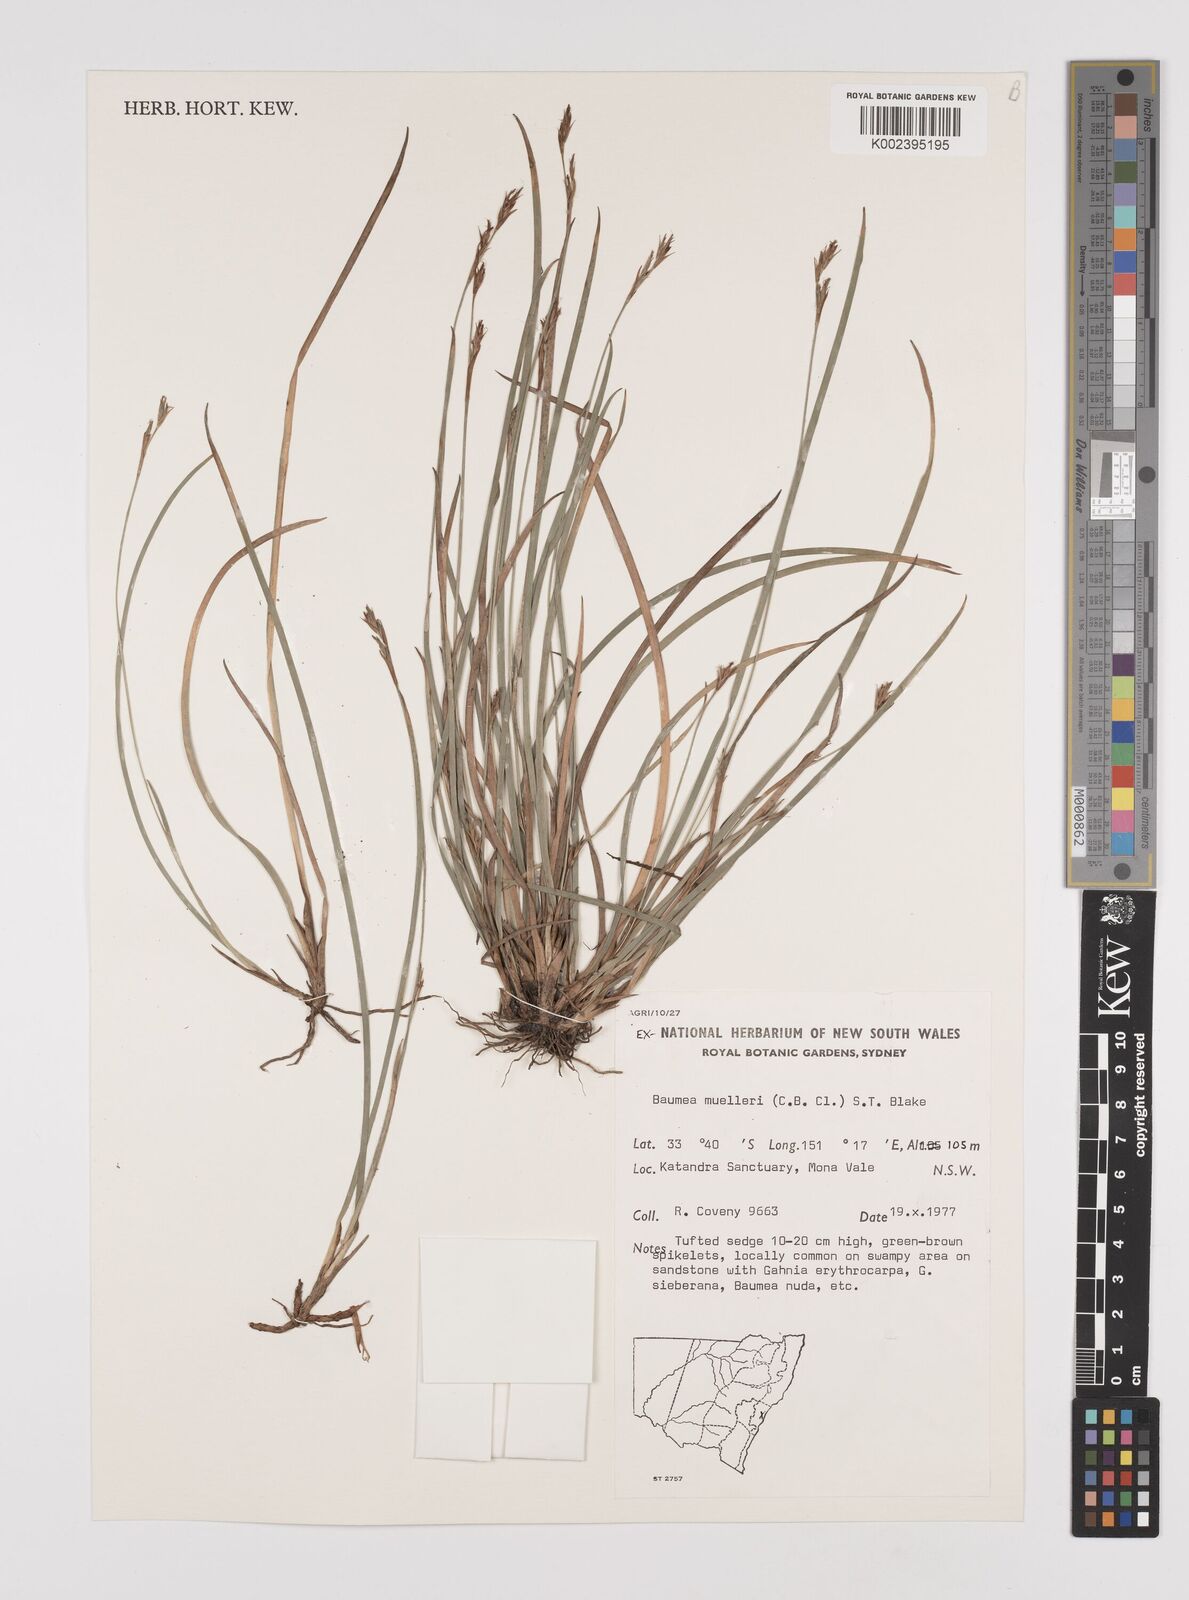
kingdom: Plantae
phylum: Tracheophyta
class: Liliopsida
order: Poales
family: Cyperaceae
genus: Machaerina
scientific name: Machaerina muelleri
